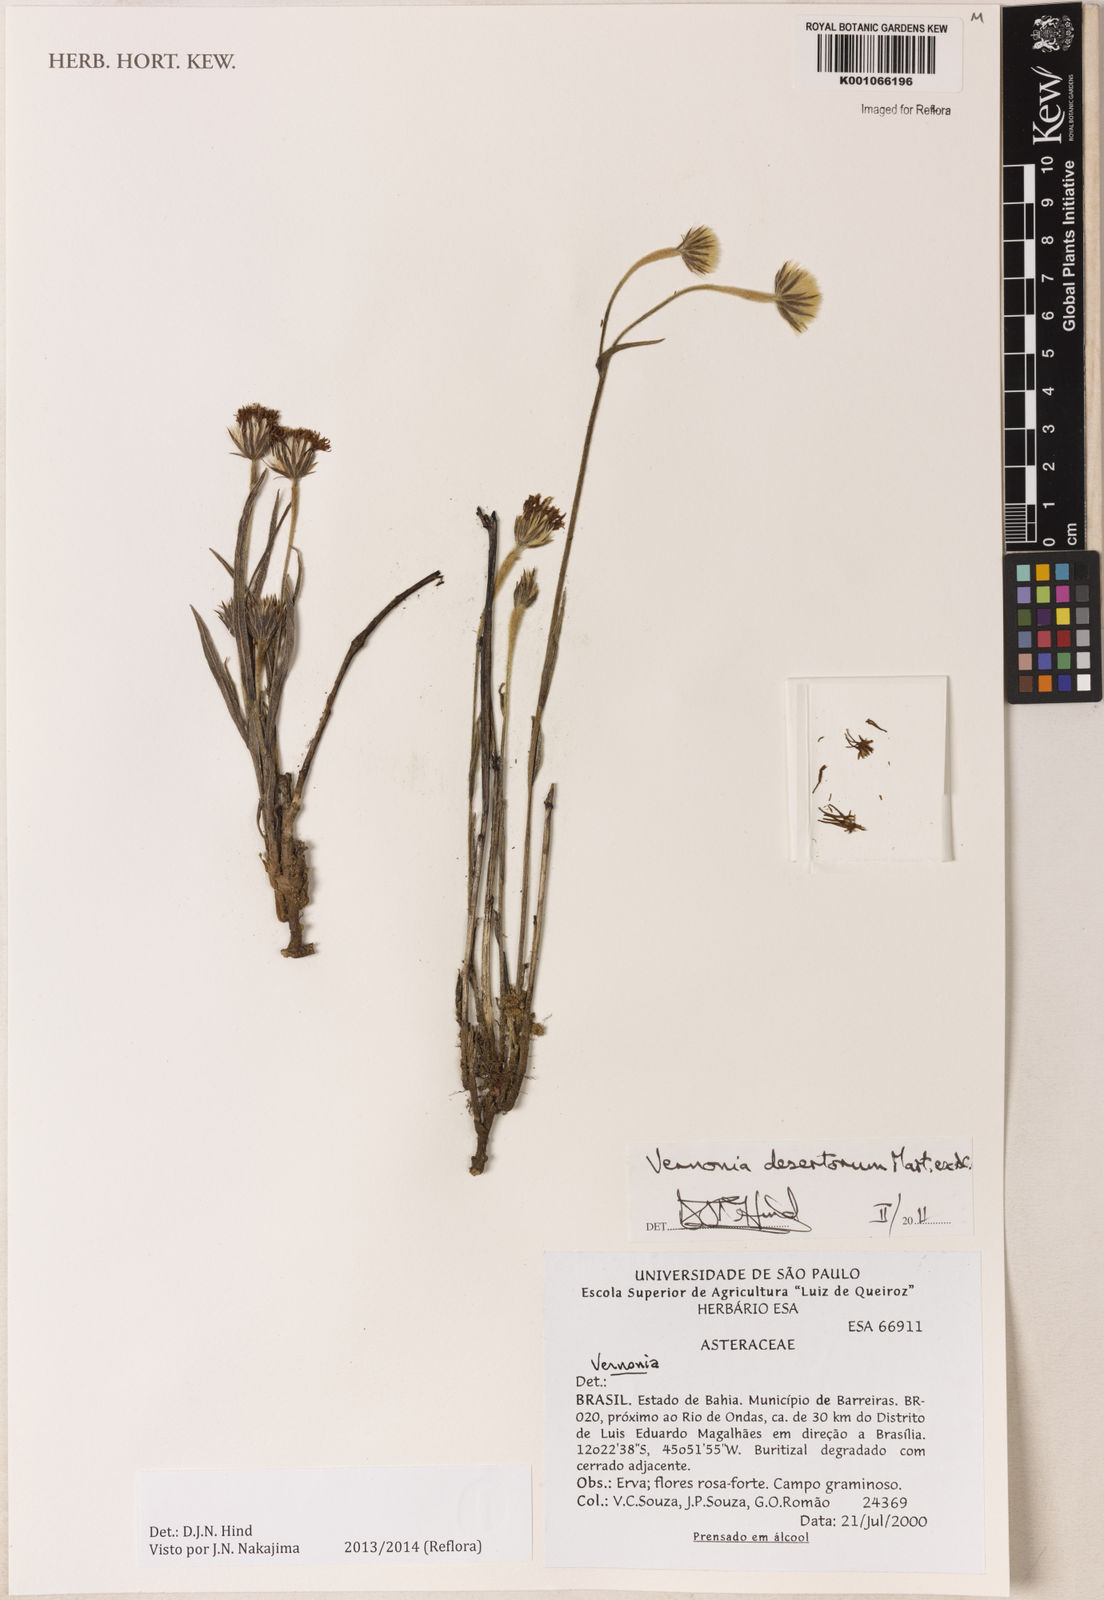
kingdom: Plantae
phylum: Tracheophyta
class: Magnoliopsida
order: Asterales
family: Asteraceae
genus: Chrysolaena
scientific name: Chrysolaena desertorum
